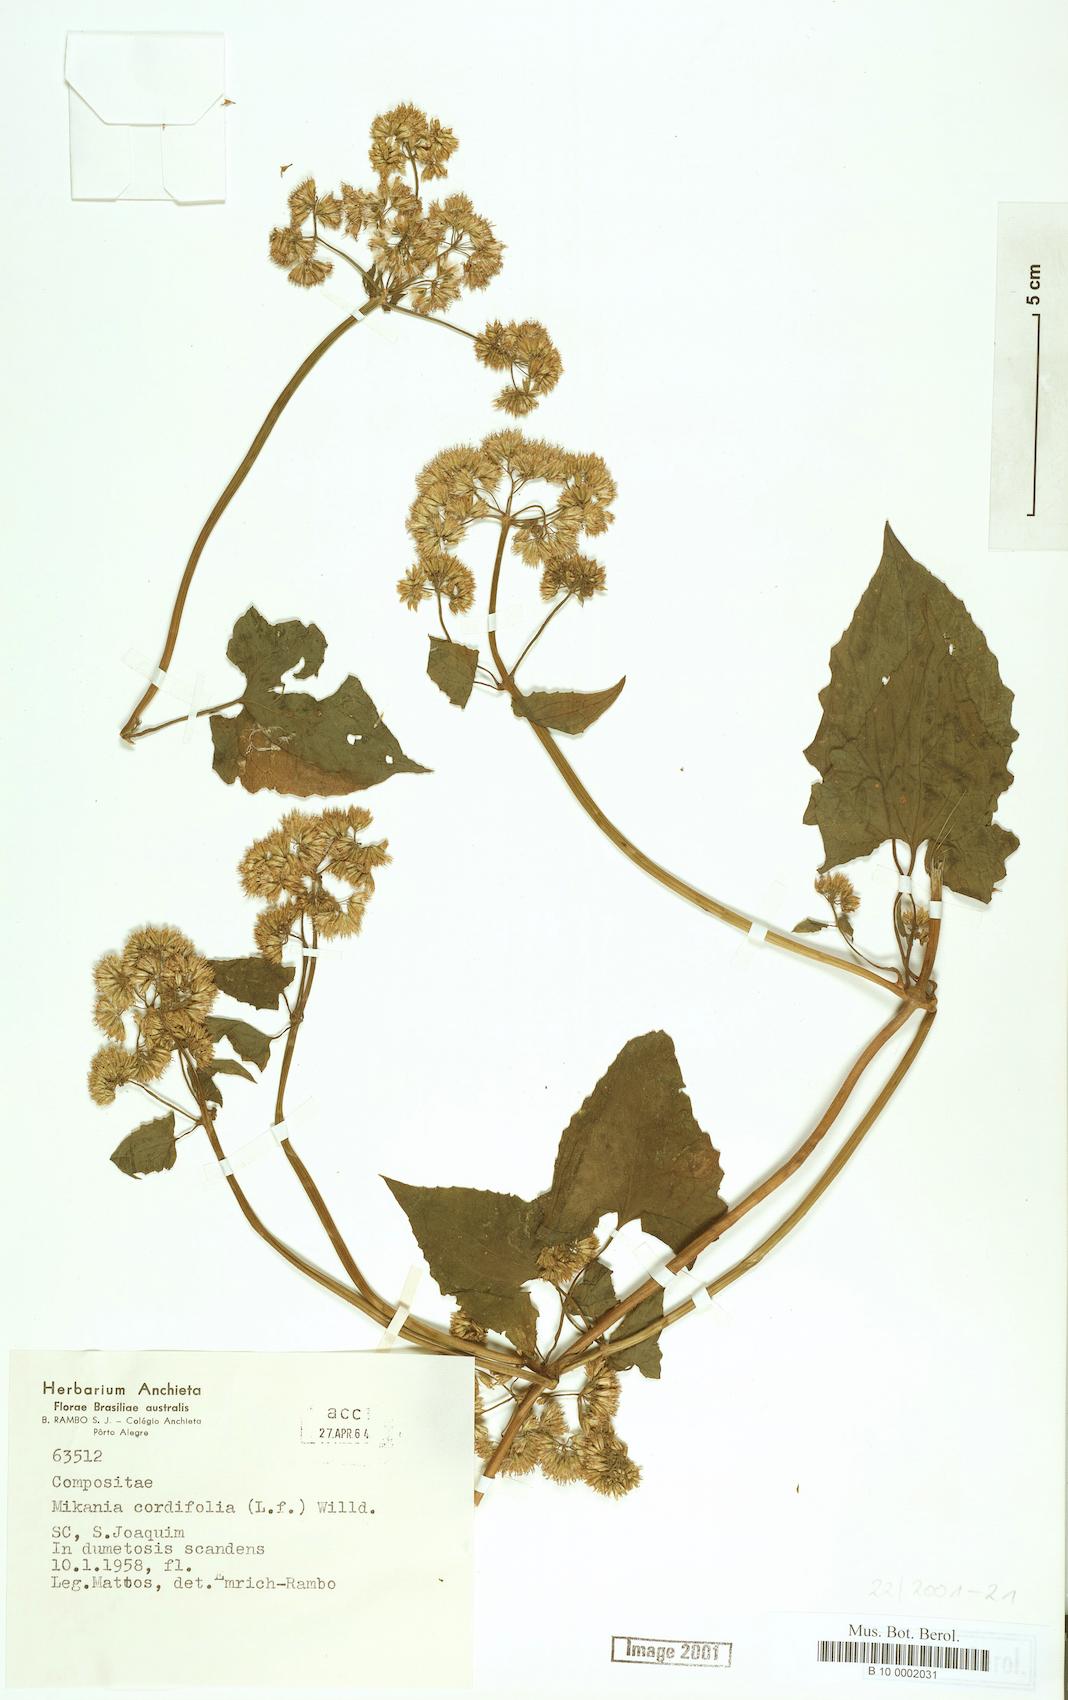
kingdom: Plantae
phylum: Tracheophyta
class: Magnoliopsida
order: Asterales
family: Asteraceae
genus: Mikania
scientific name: Mikania cordifolia
